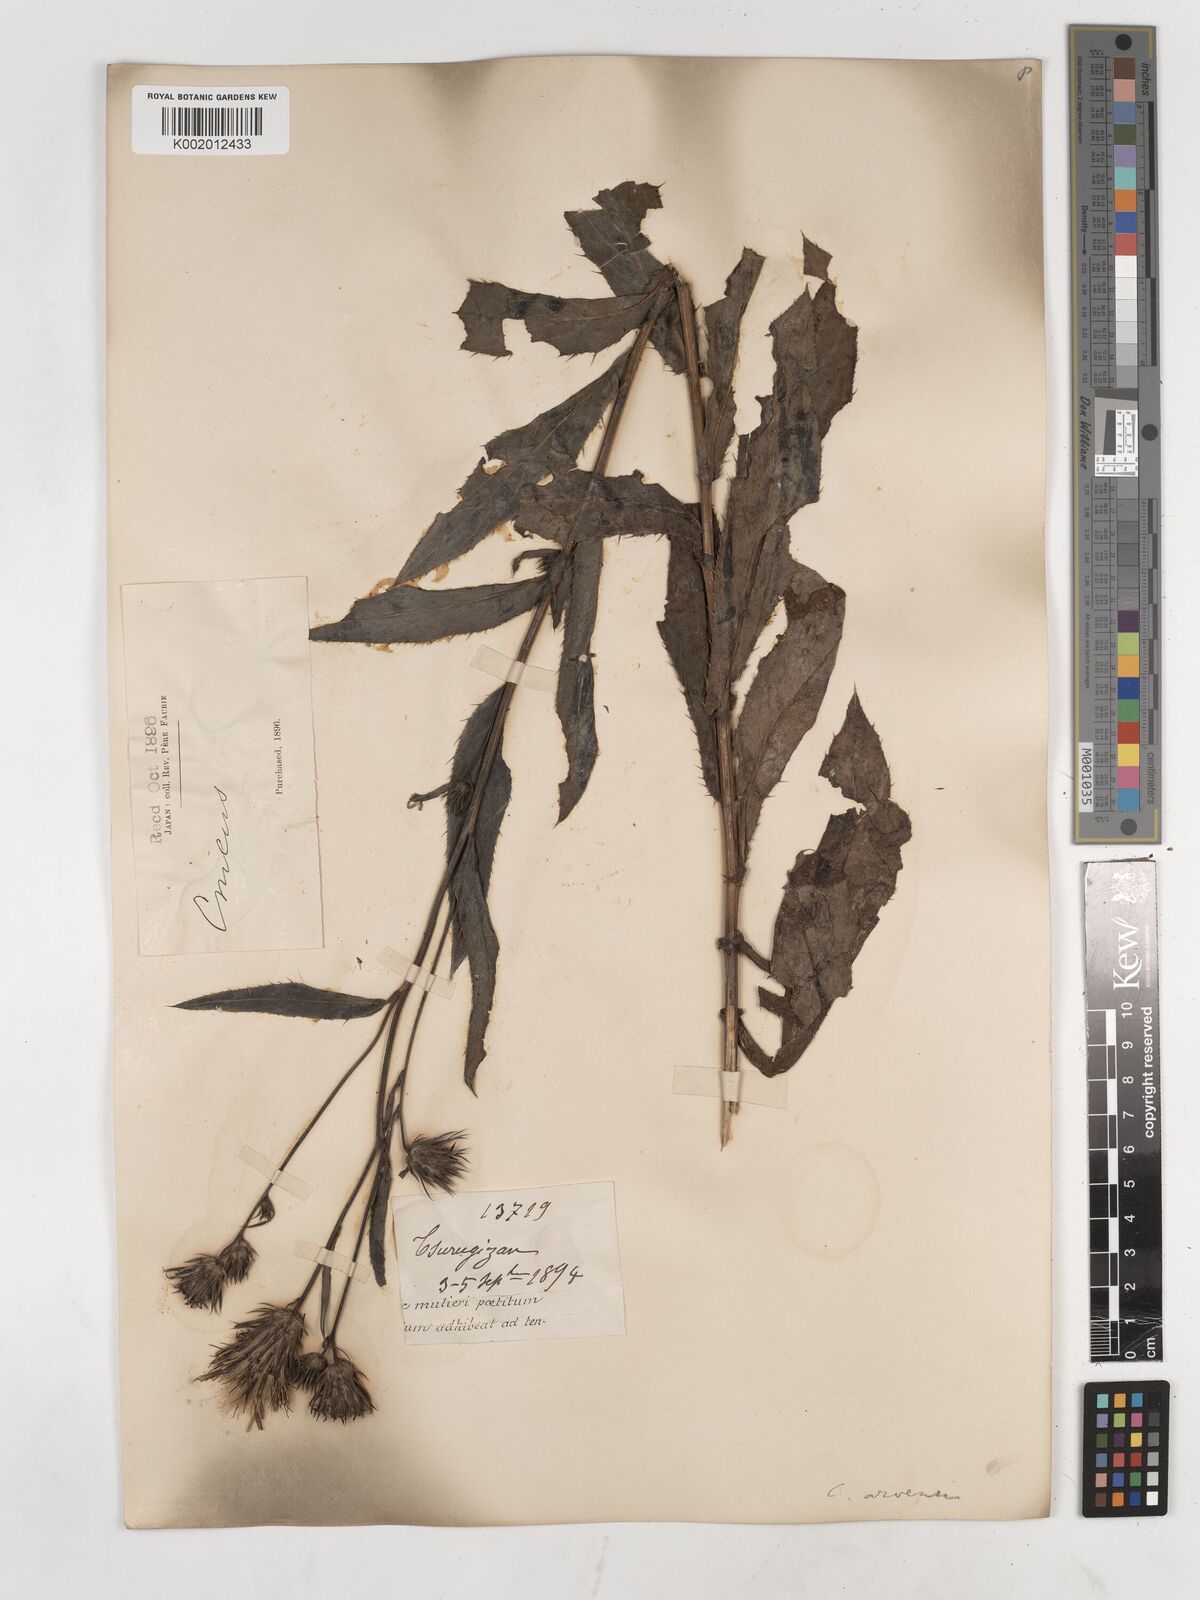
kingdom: Plantae
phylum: Tracheophyta
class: Magnoliopsida
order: Asterales
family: Asteraceae
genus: Cirsium
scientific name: Cirsium
